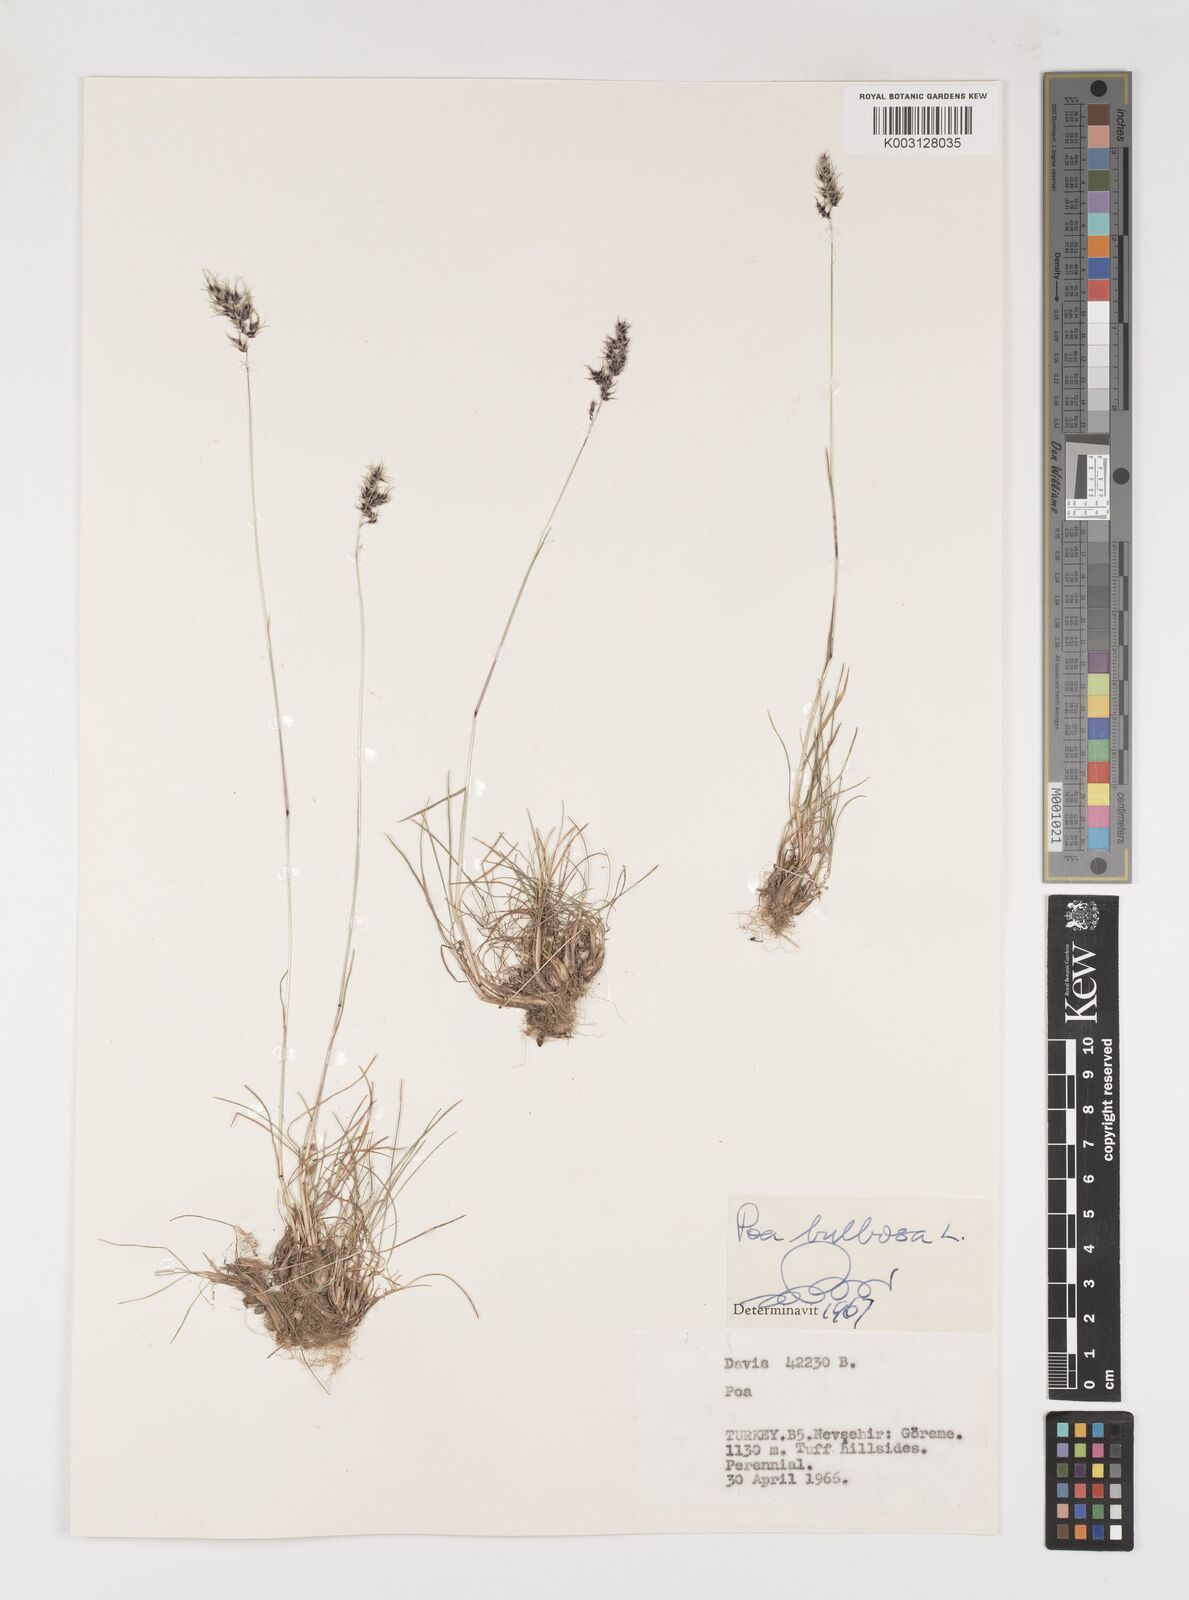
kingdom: Plantae
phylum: Tracheophyta
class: Liliopsida
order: Poales
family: Poaceae
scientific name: Poaceae
